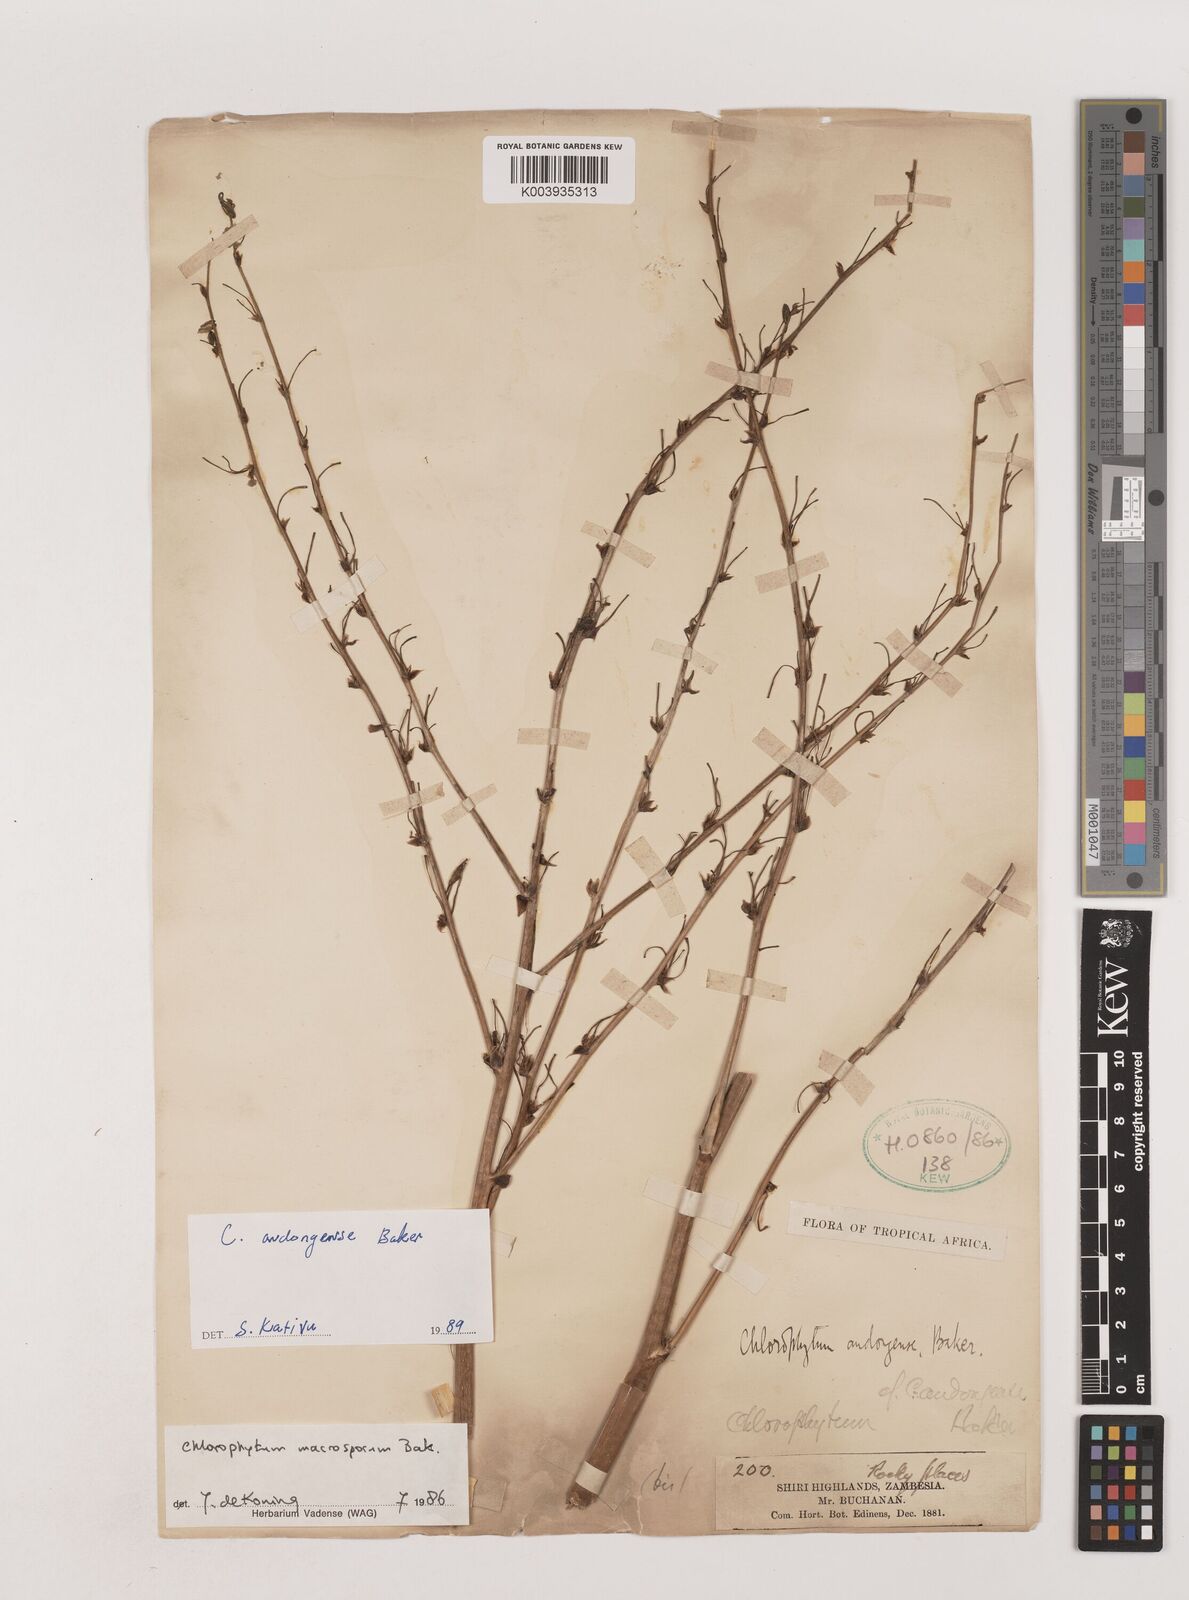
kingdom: Plantae
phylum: Tracheophyta
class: Liliopsida
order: Asparagales
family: Asparagaceae
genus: Chlorophytum
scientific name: Chlorophytum andongense
